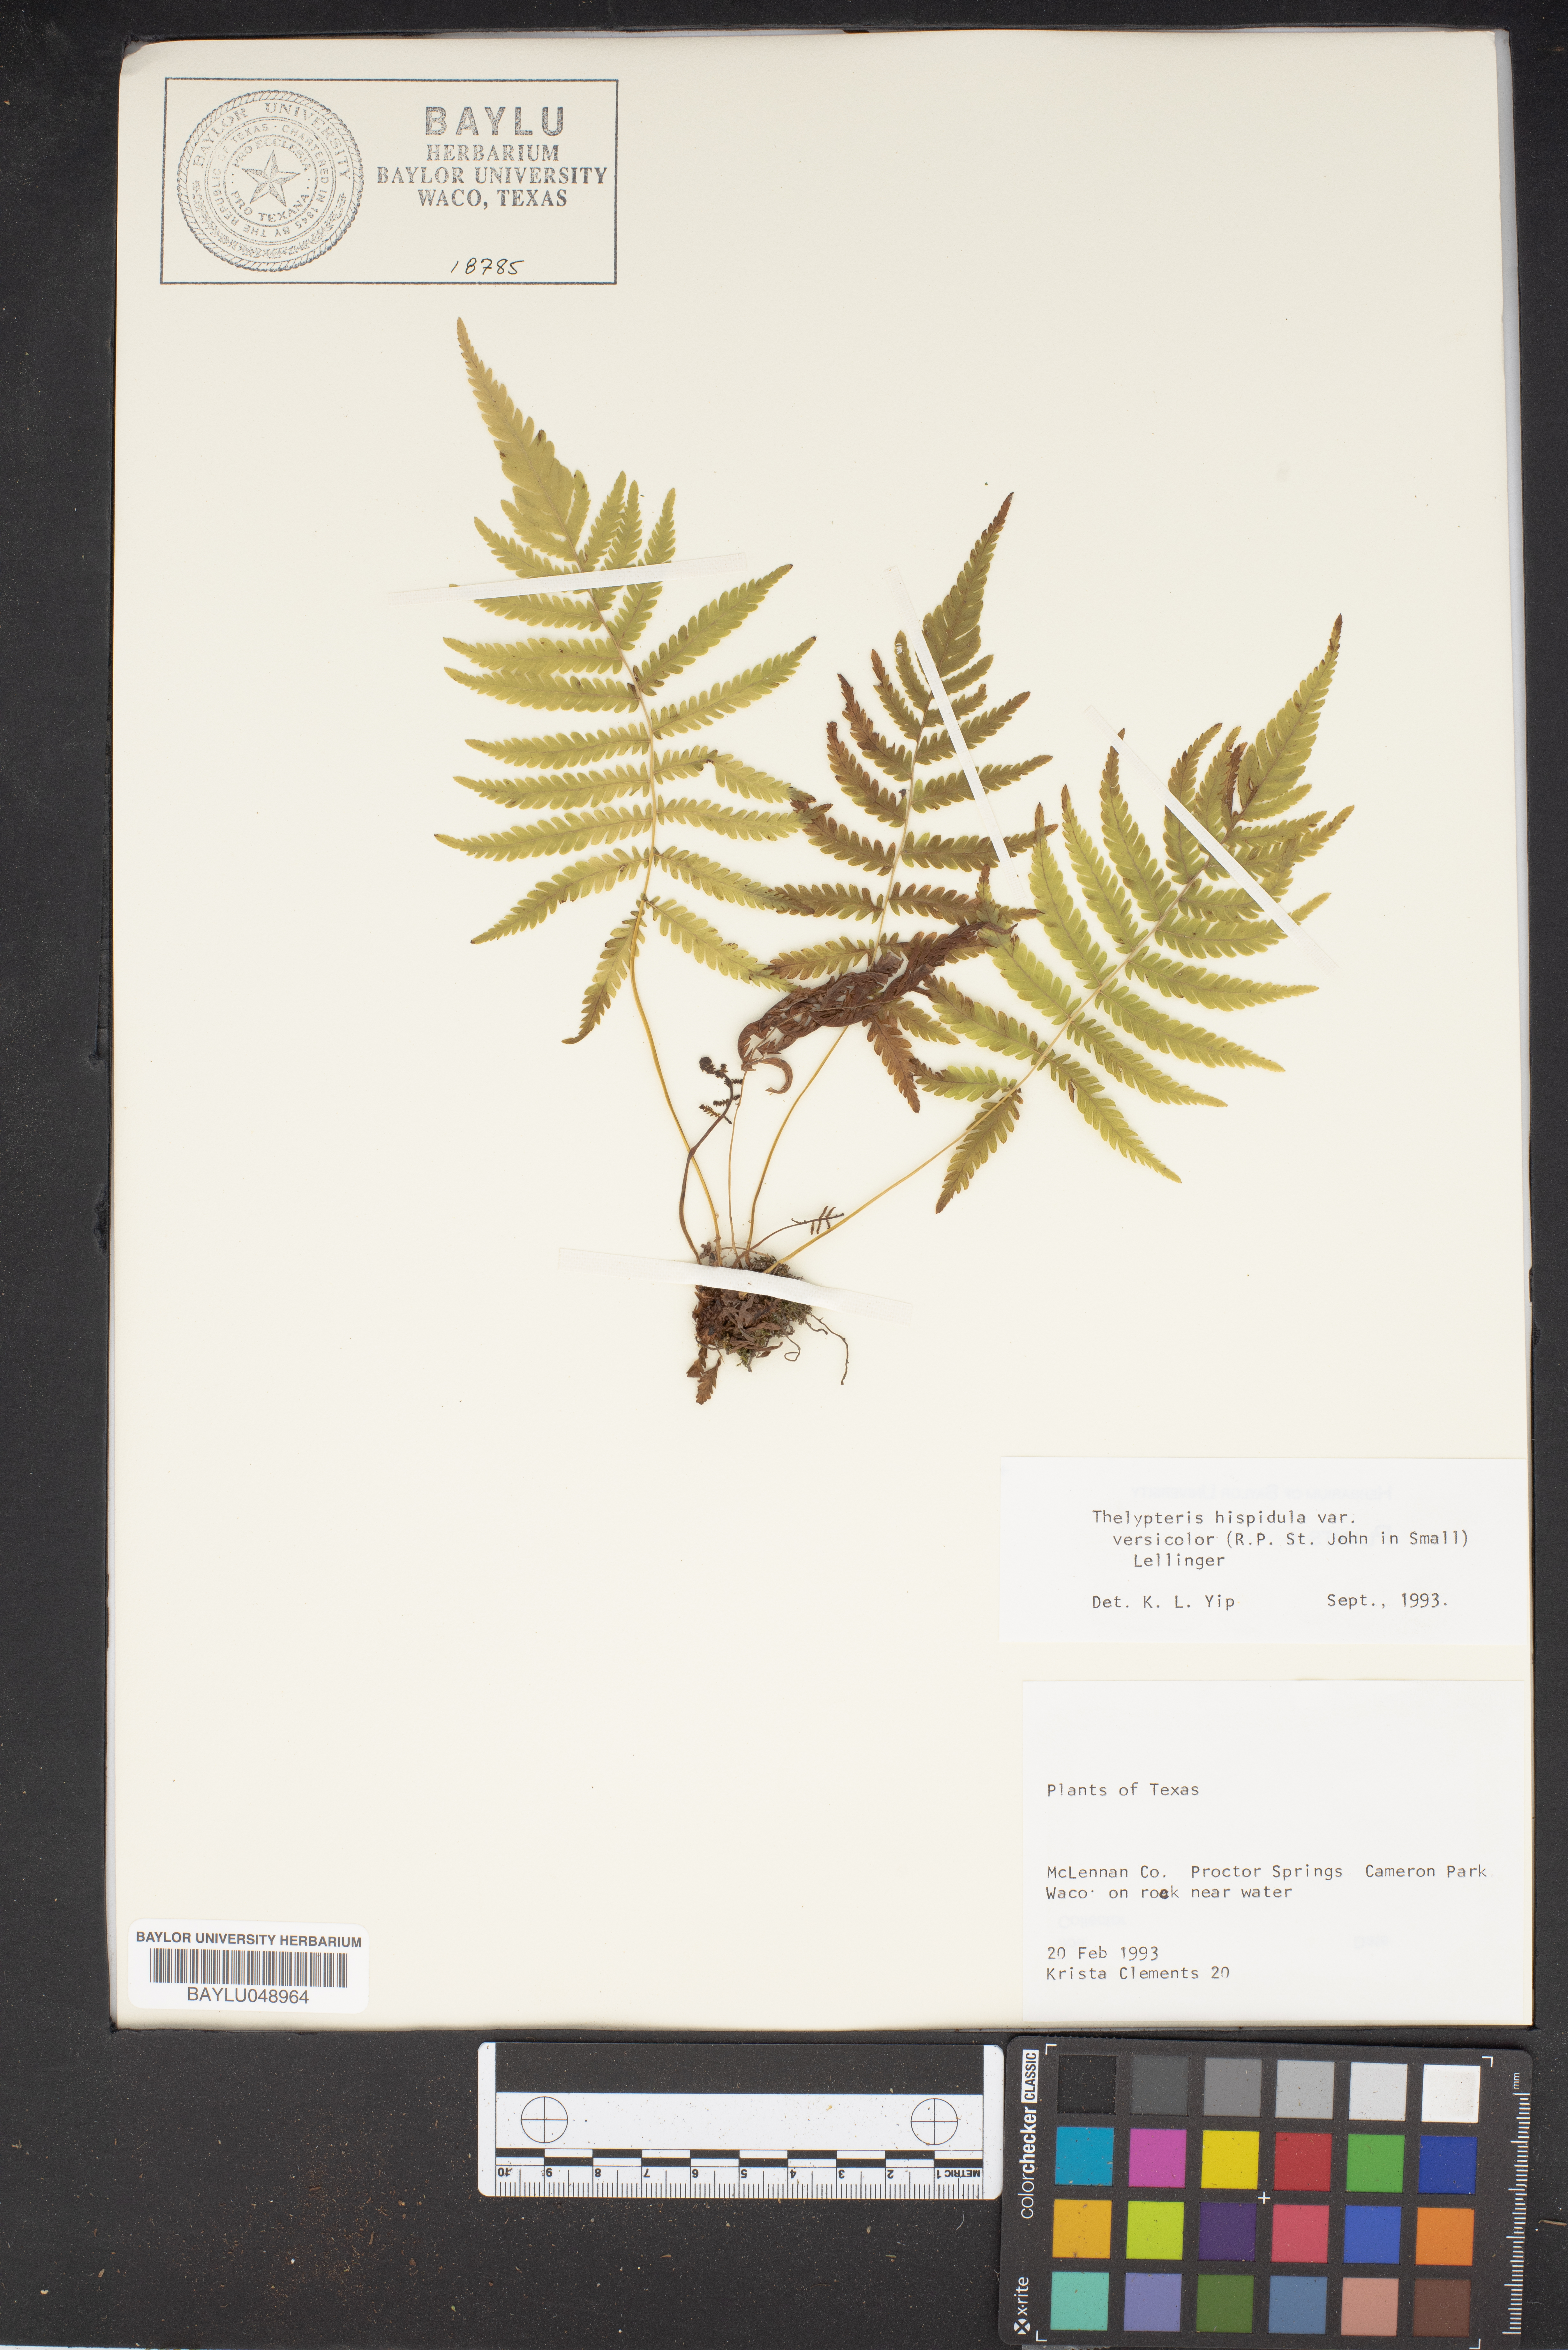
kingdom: Plantae
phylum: Tracheophyta
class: Polypodiopsida
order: Polypodiales
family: Thelypteridaceae
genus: Christella
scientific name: Christella hispidula
